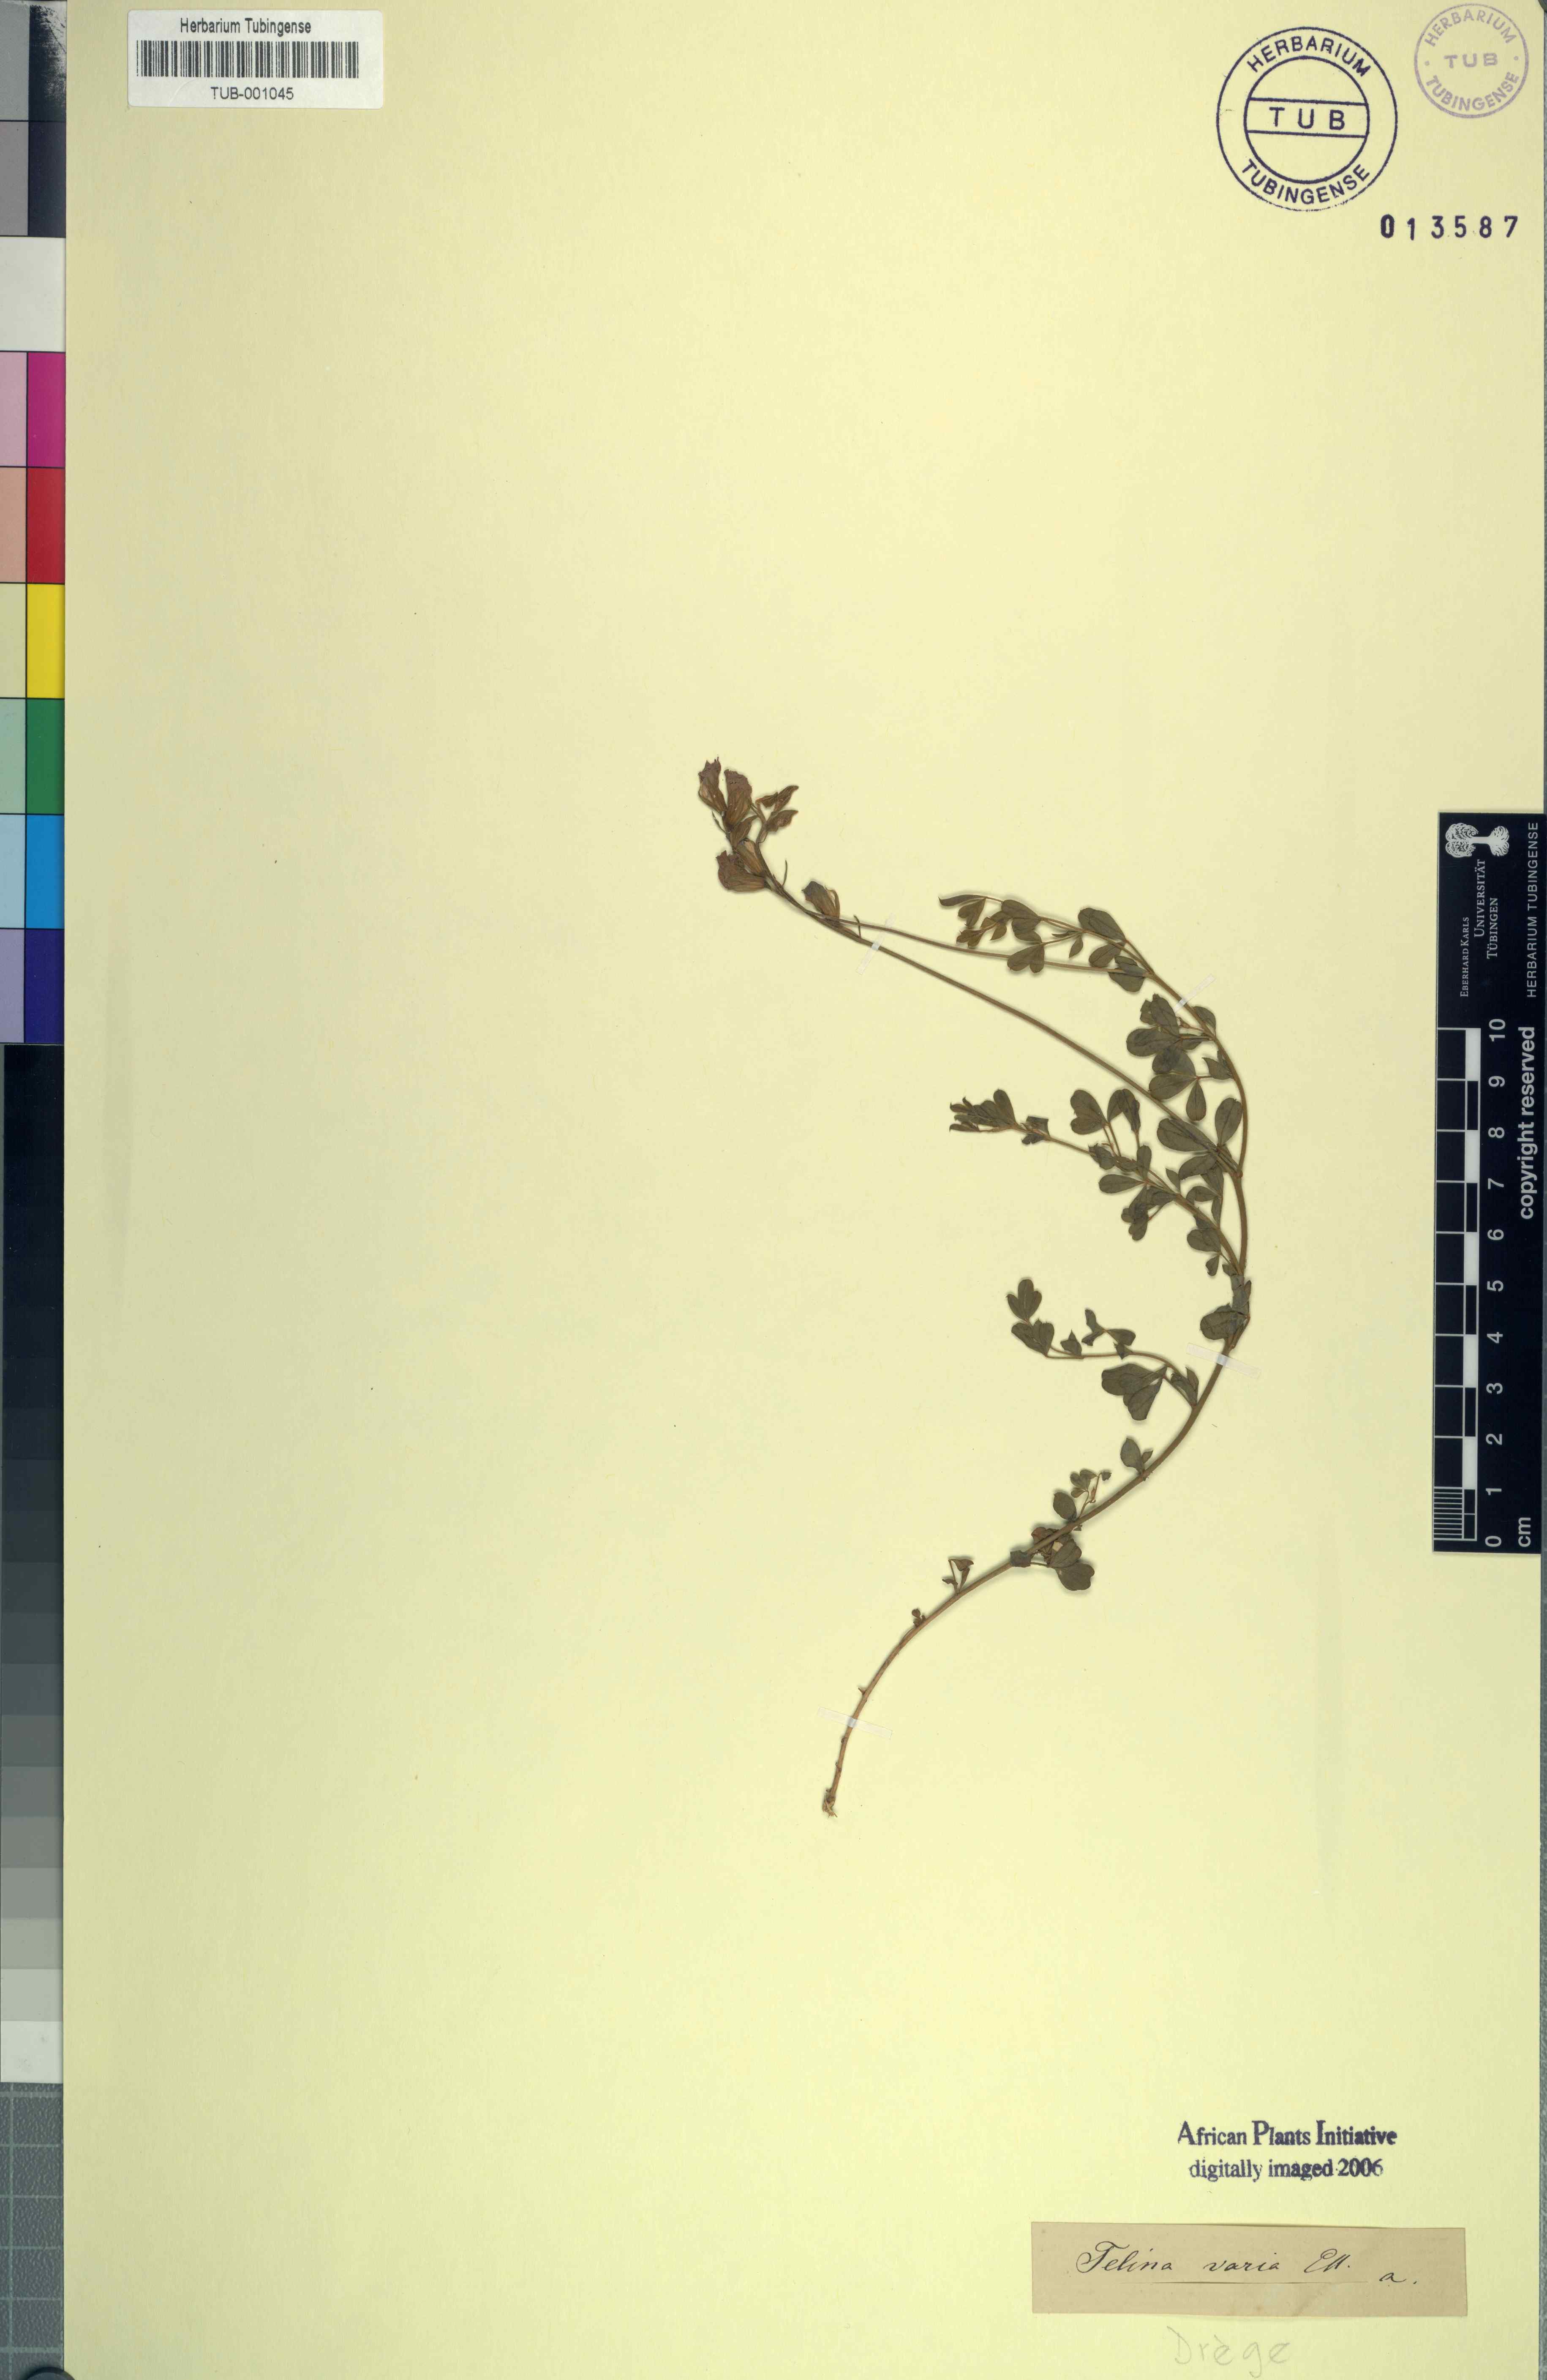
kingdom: Plantae
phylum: Tracheophyta
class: Magnoliopsida
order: Fabales
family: Fabaceae
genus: Lotononis
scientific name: Lotononis varia
